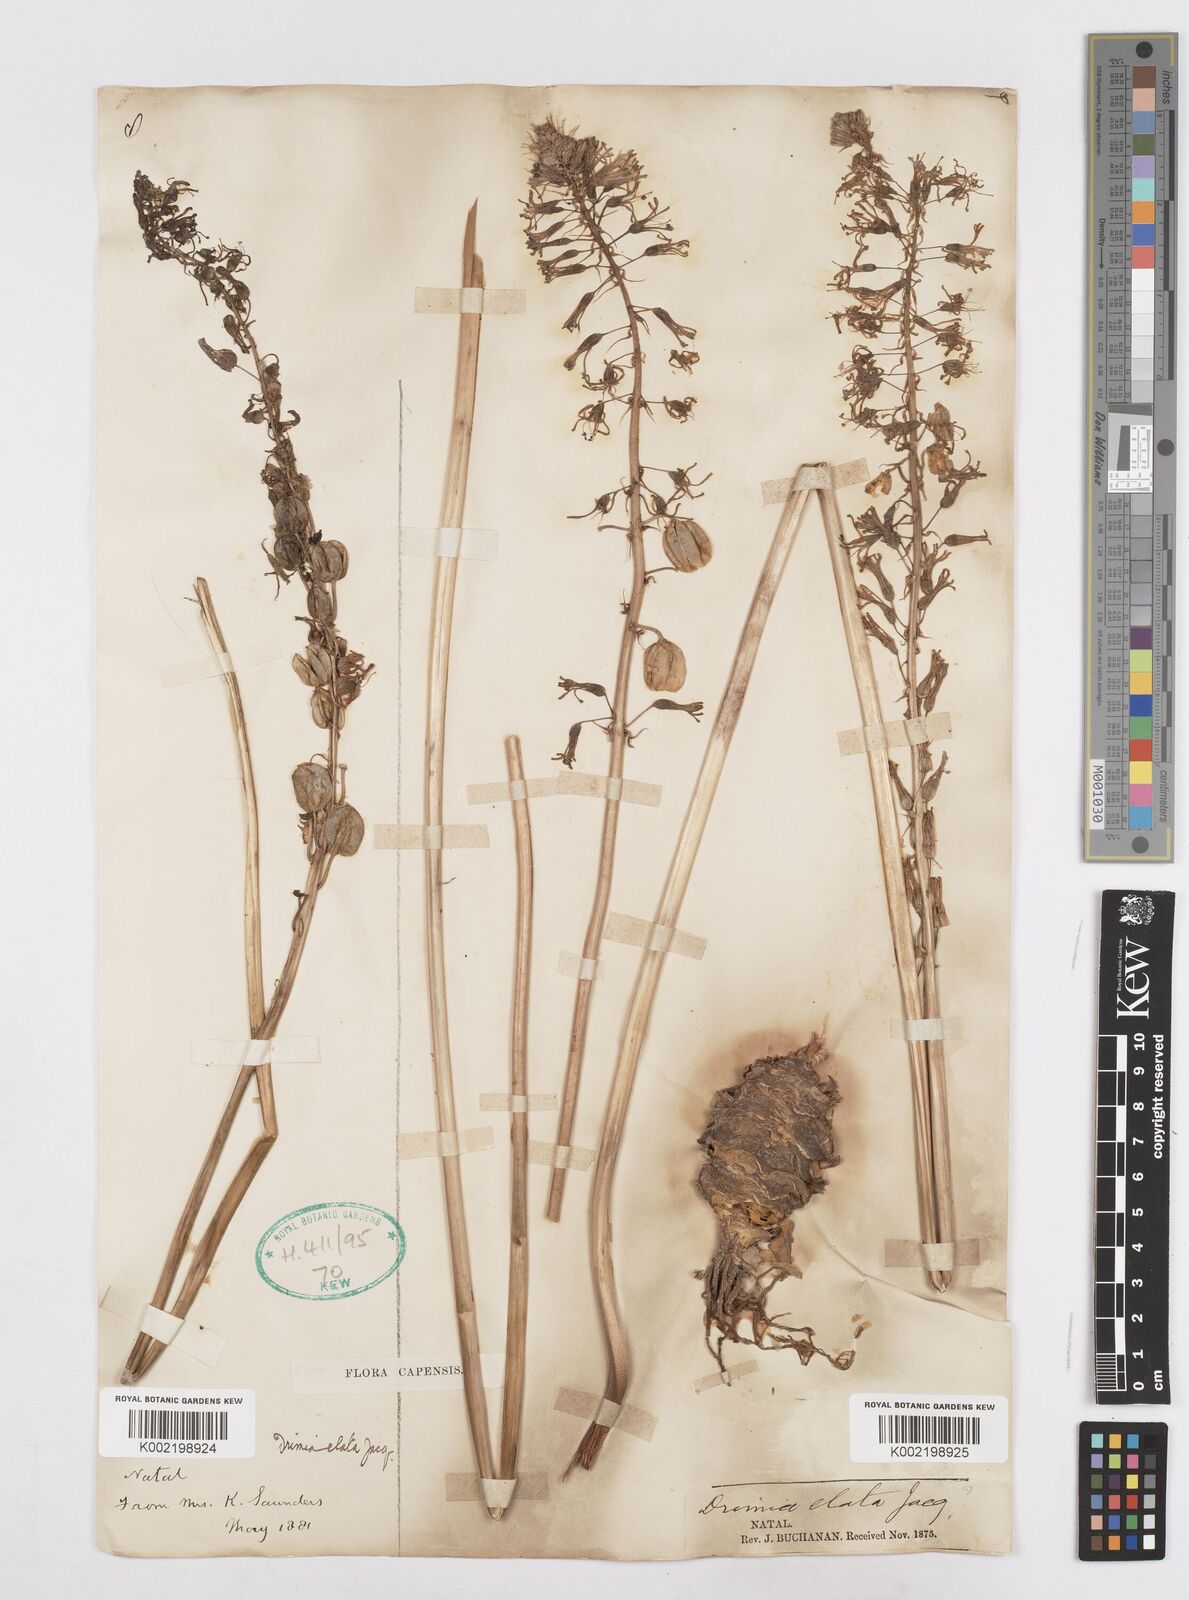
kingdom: Plantae
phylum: Tracheophyta
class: Liliopsida
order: Asparagales
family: Asparagaceae
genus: Drimia
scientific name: Drimia elata
